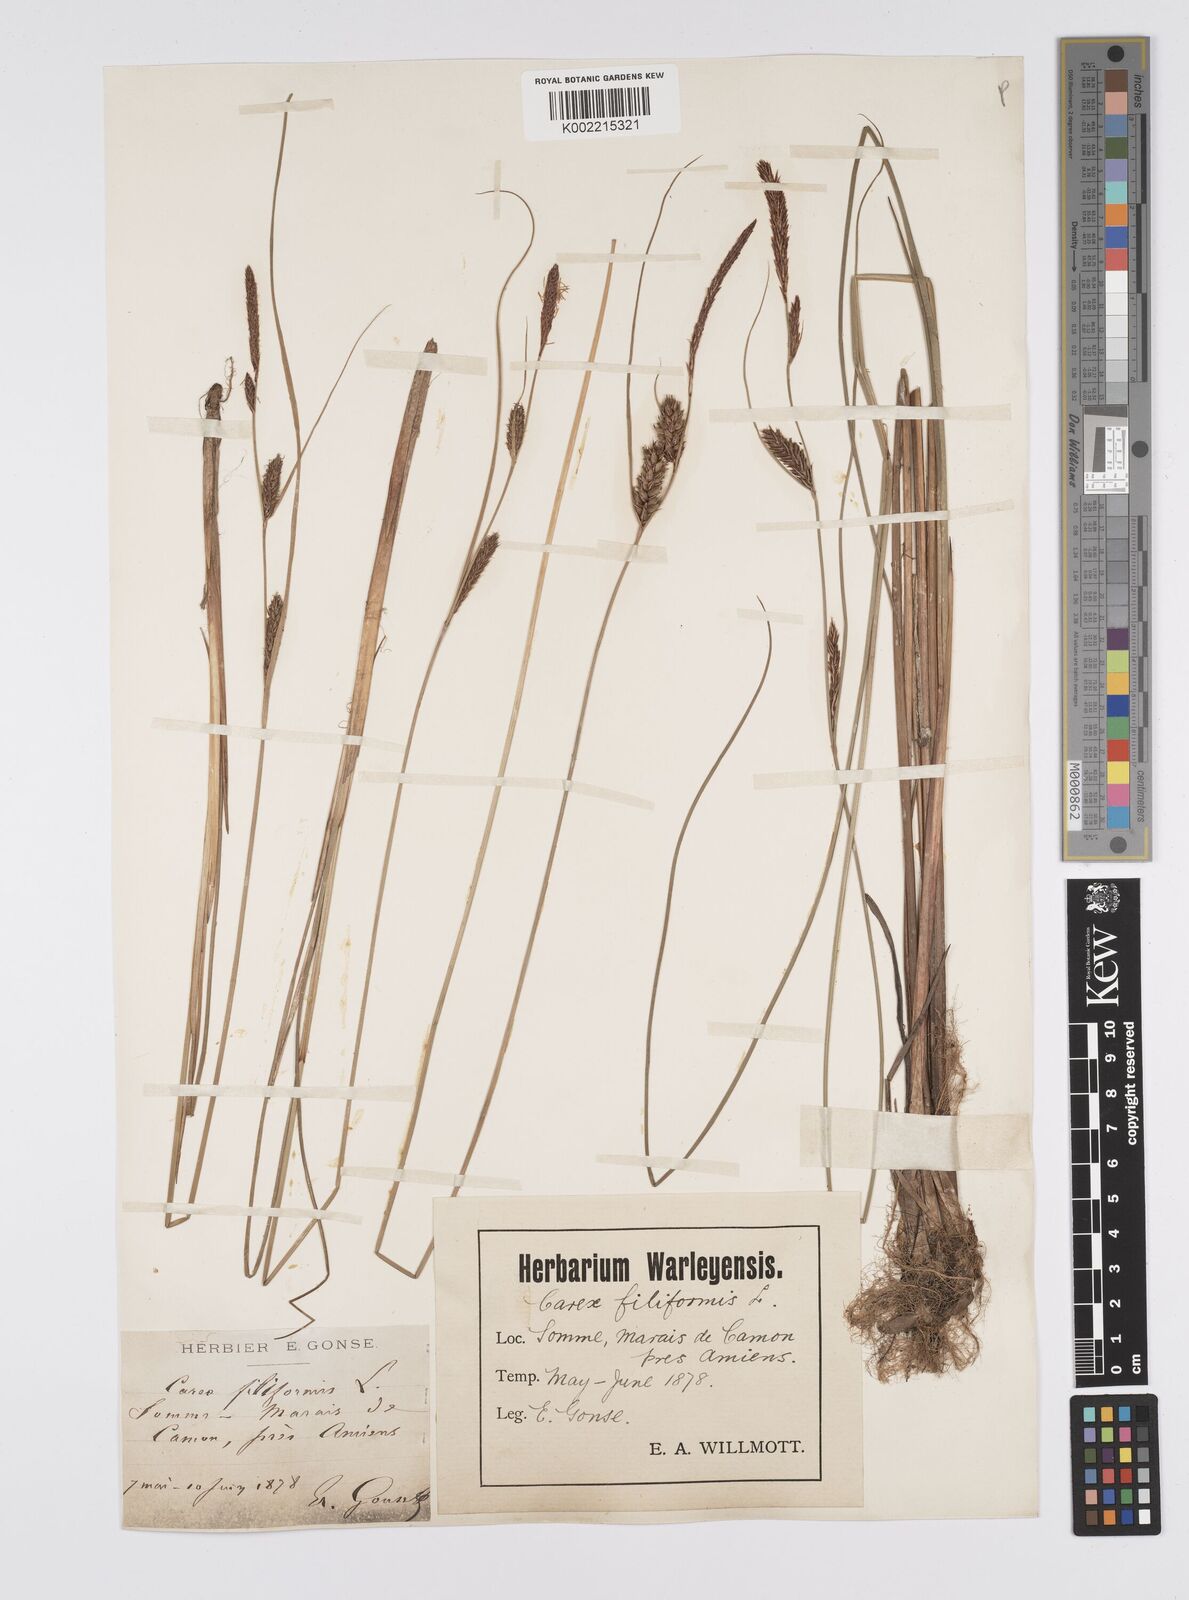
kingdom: Plantae
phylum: Tracheophyta
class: Liliopsida
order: Poales
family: Cyperaceae
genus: Carex
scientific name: Carex lasiocarpa
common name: Slender sedge
